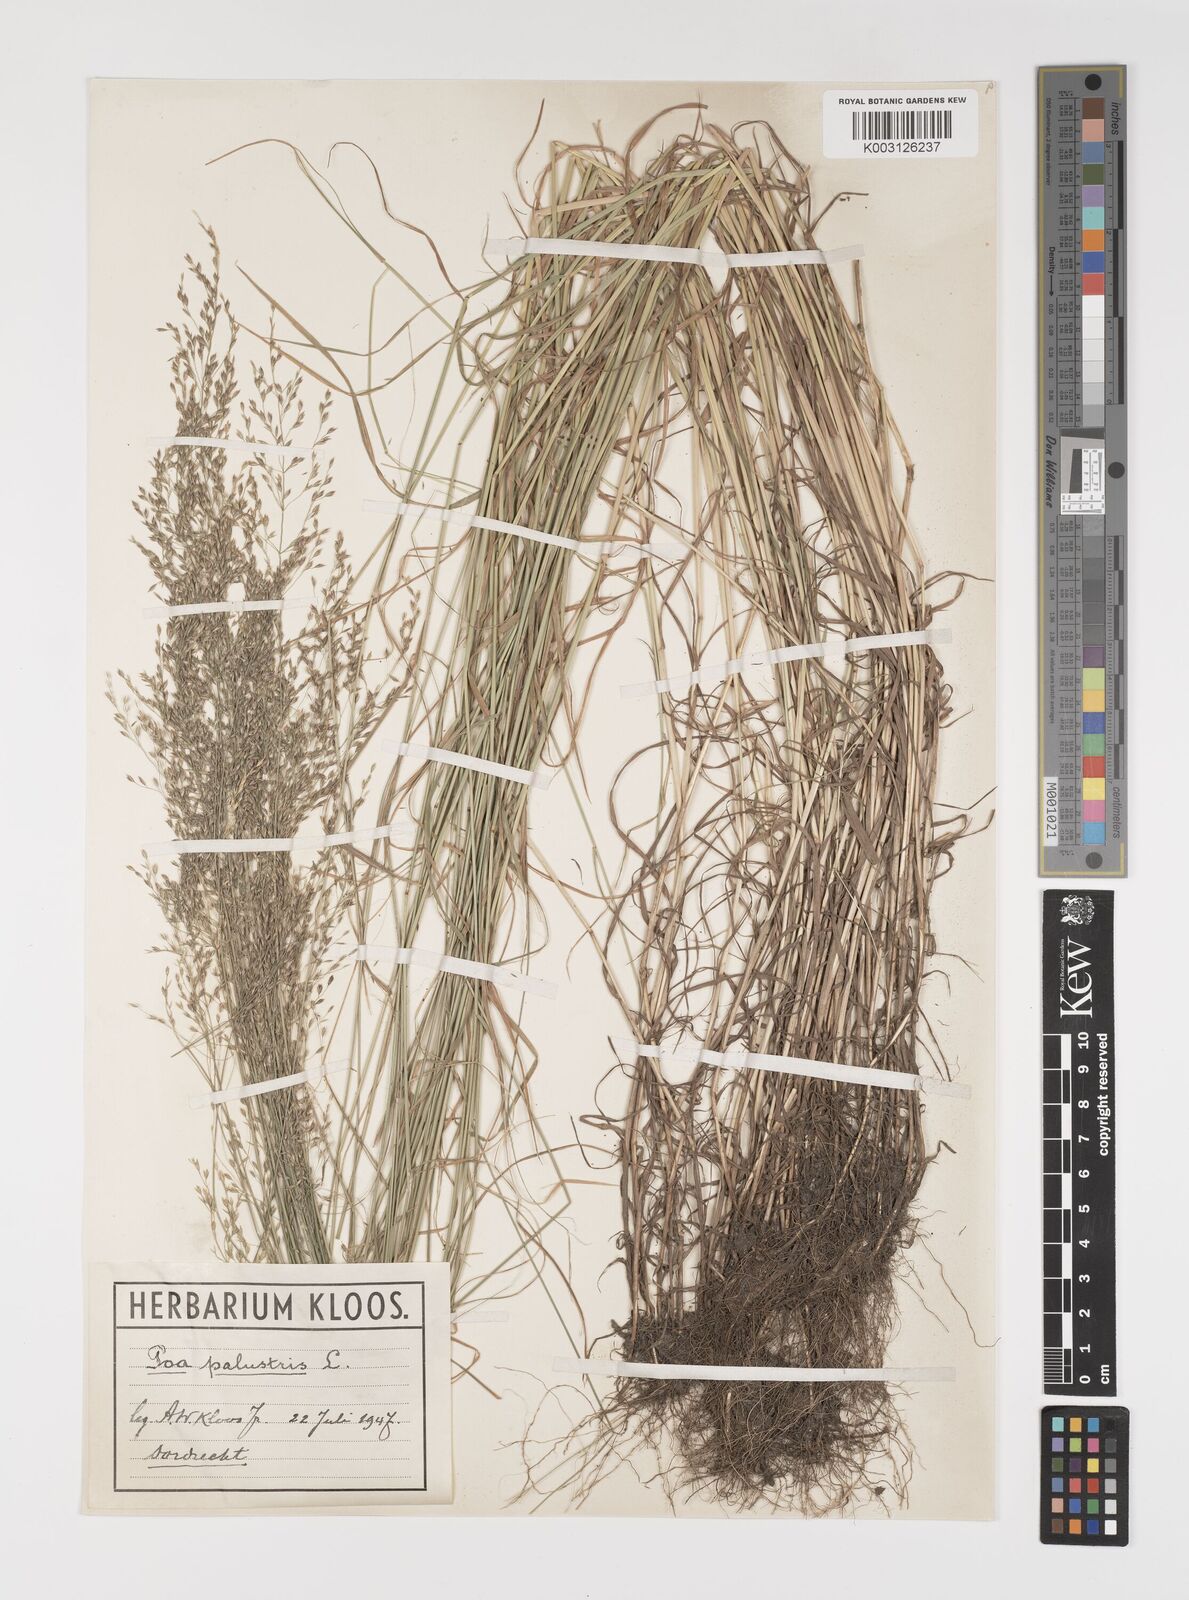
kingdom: Plantae
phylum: Tracheophyta
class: Liliopsida
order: Poales
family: Poaceae
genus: Poa
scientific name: Poa palustris
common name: Swamp meadow-grass
